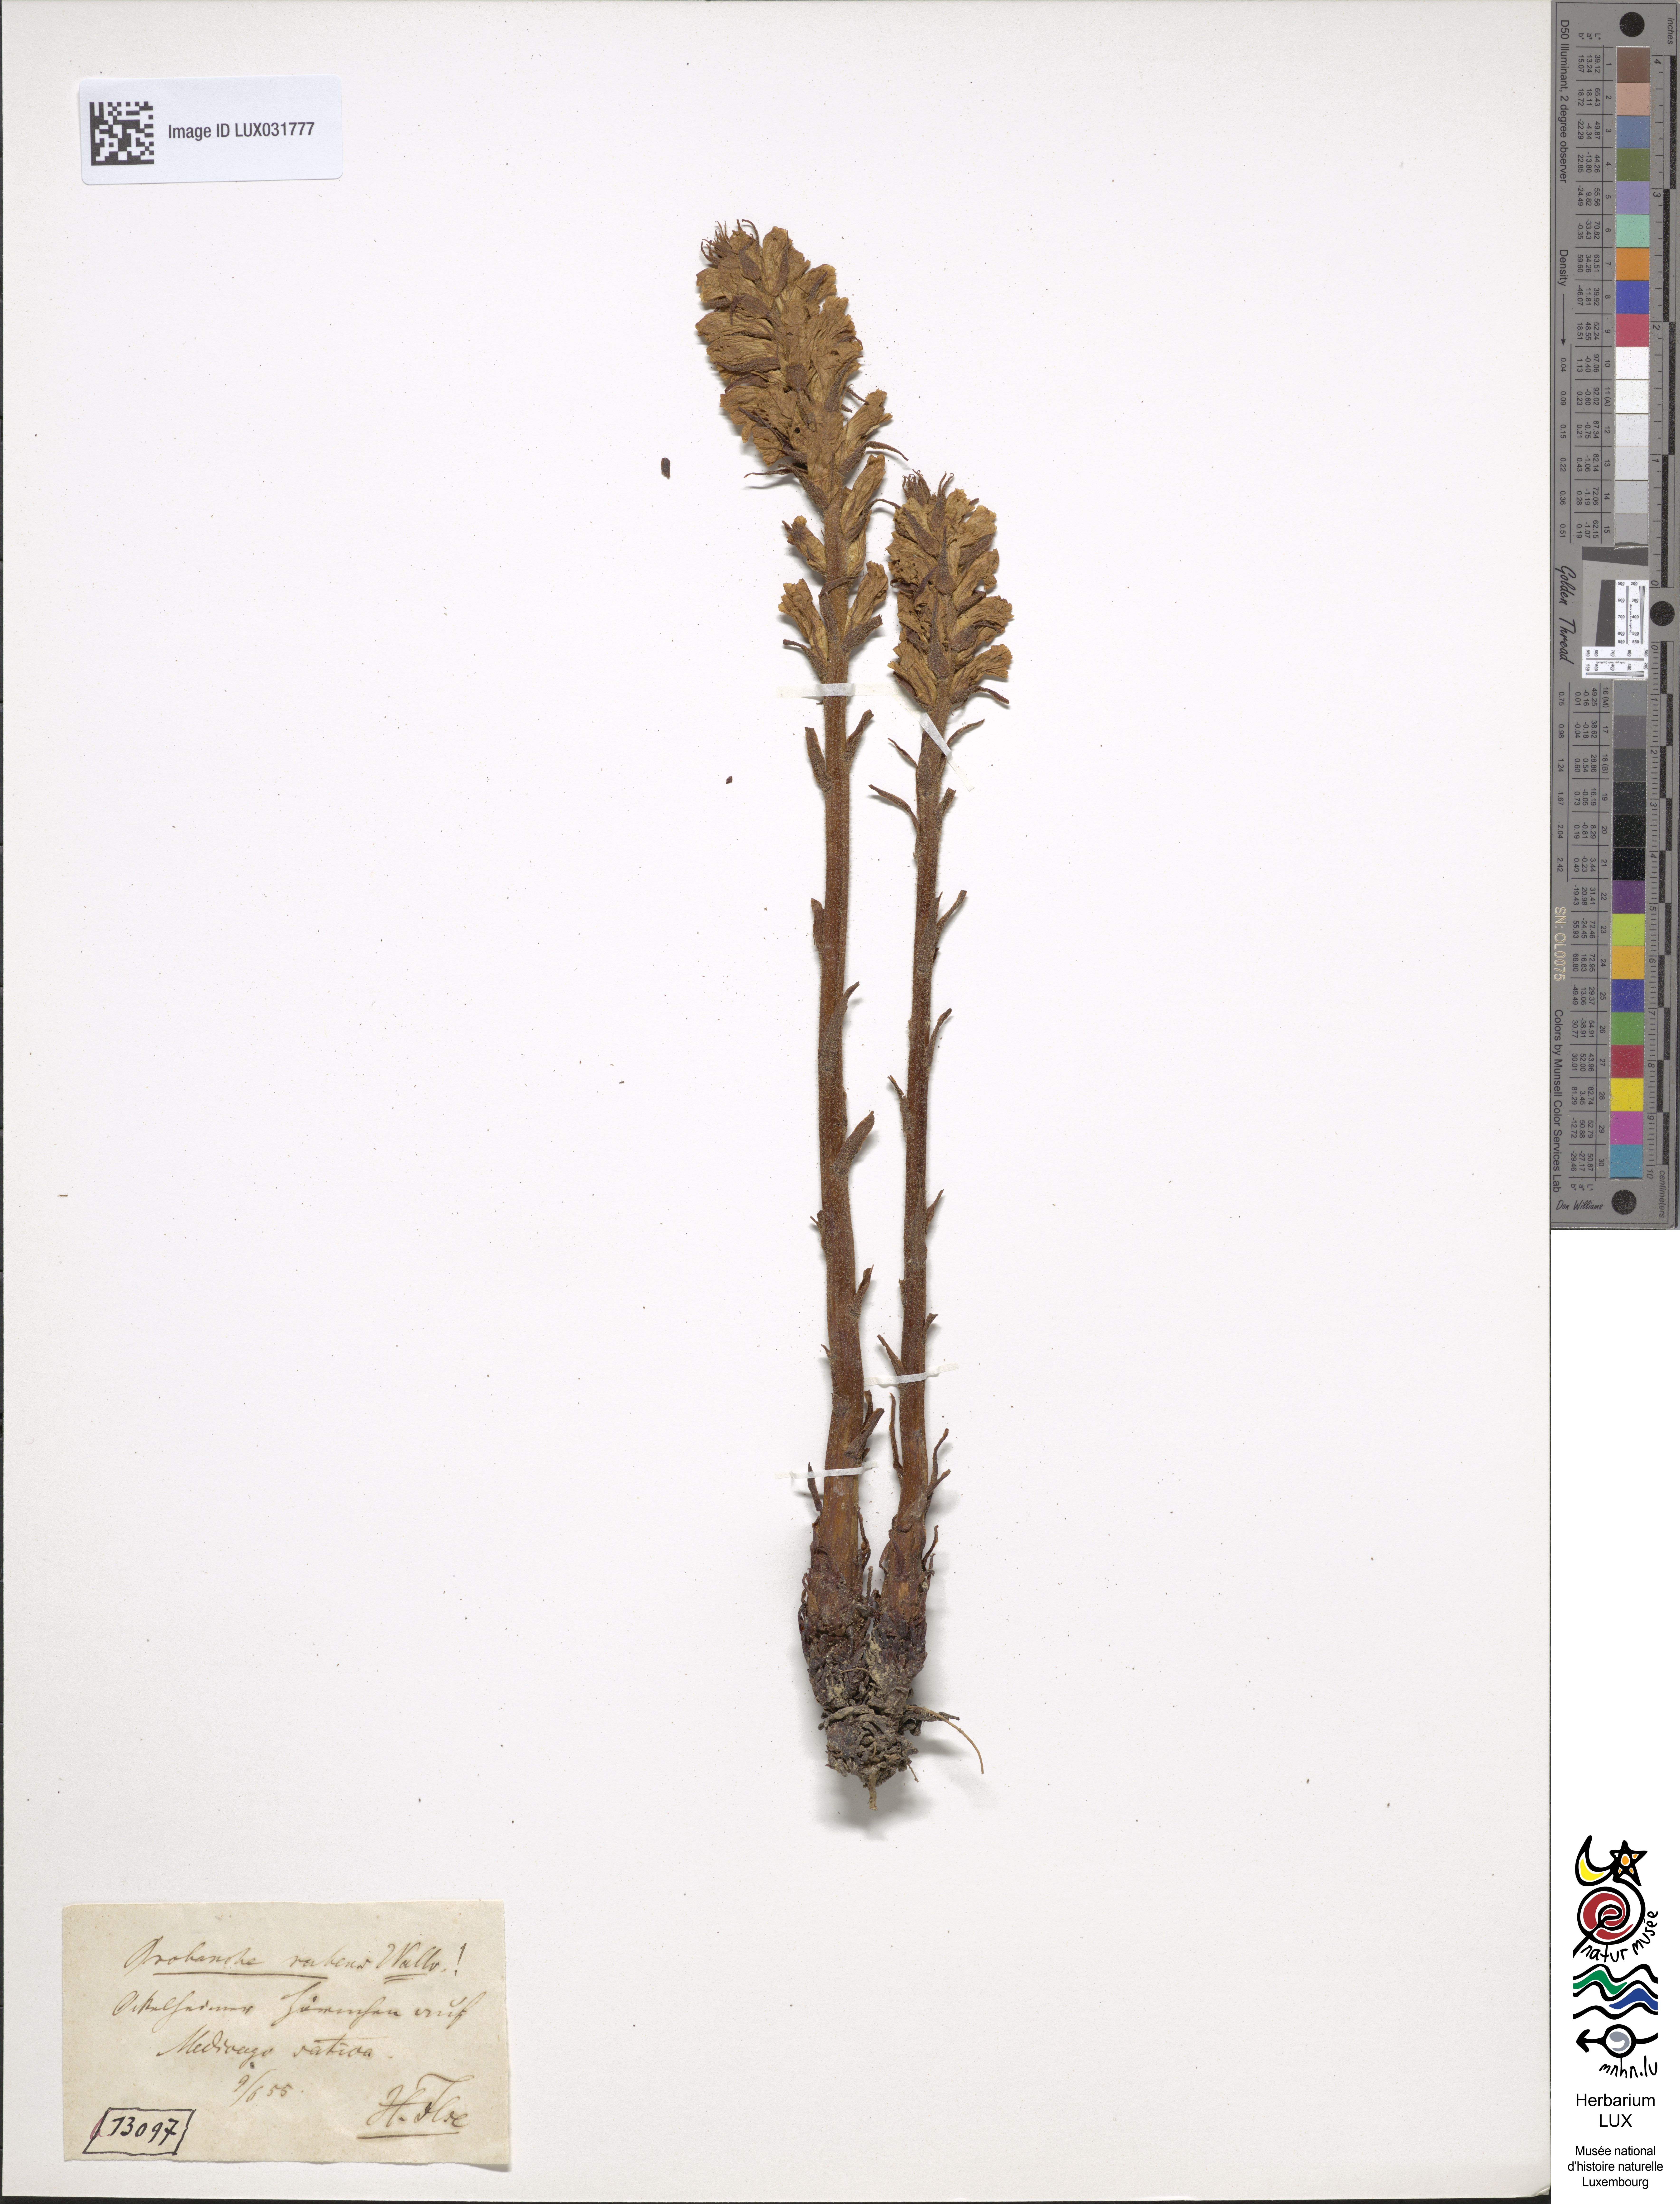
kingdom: Plantae
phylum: Tracheophyta
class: Magnoliopsida
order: Lamiales
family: Orobanchaceae
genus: Orobanche
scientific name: Orobanche lutea
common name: Yellow broomrape
